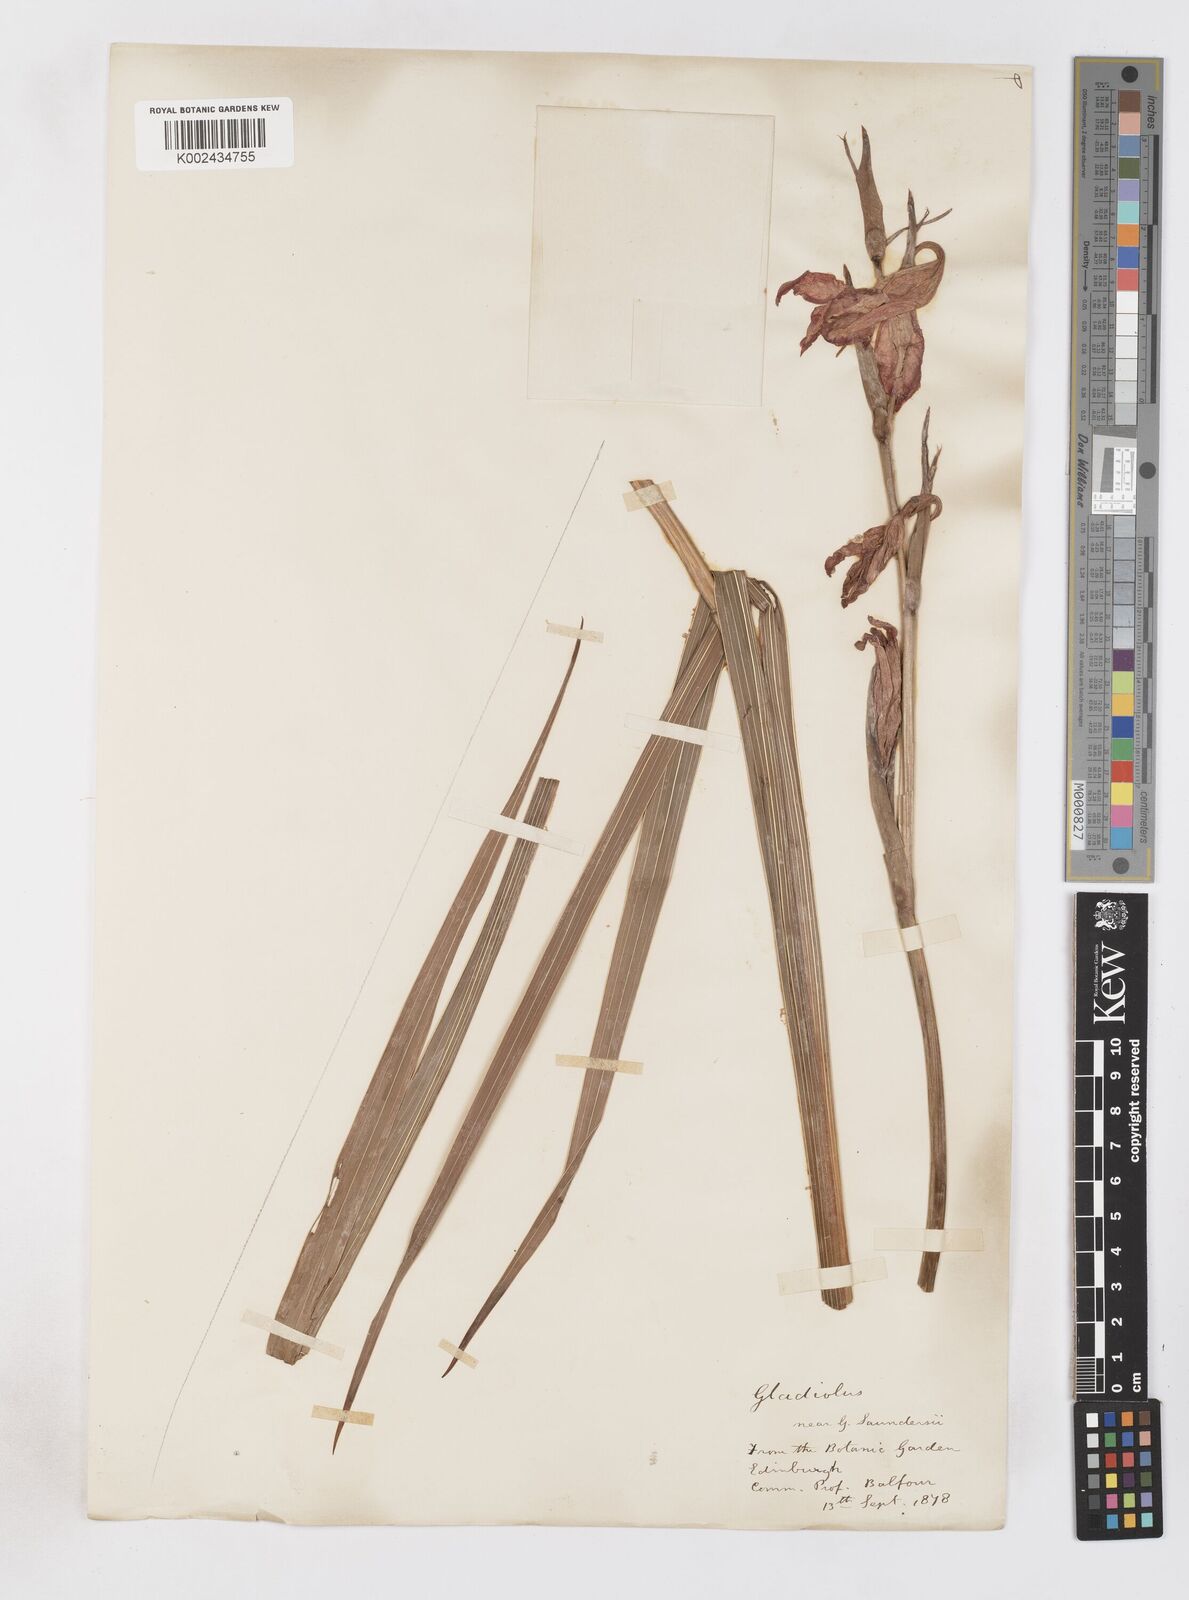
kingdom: Plantae
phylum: Tracheophyta
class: Liliopsida
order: Asparagales
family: Iridaceae
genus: Gladiolus
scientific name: Gladiolus
